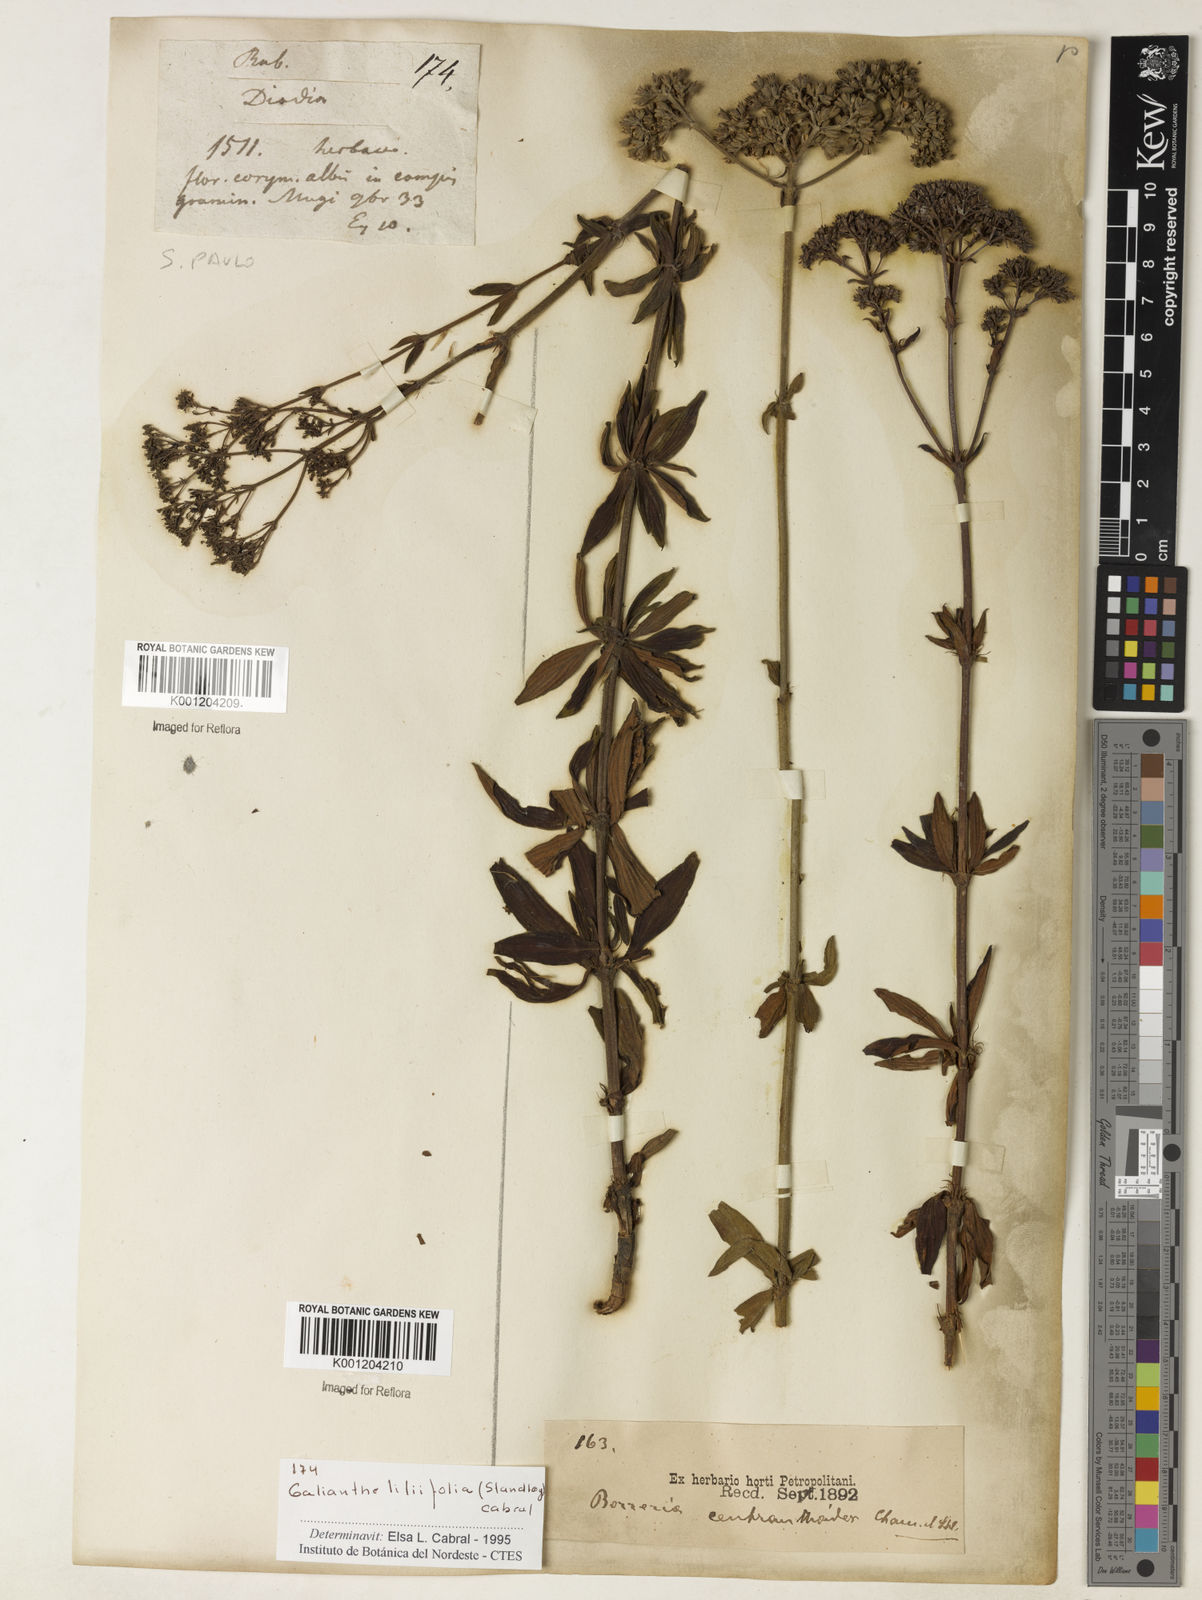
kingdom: Plantae
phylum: Tracheophyta
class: Magnoliopsida
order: Gentianales
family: Rubiaceae
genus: Galianthe
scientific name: Galianthe liliifolia
